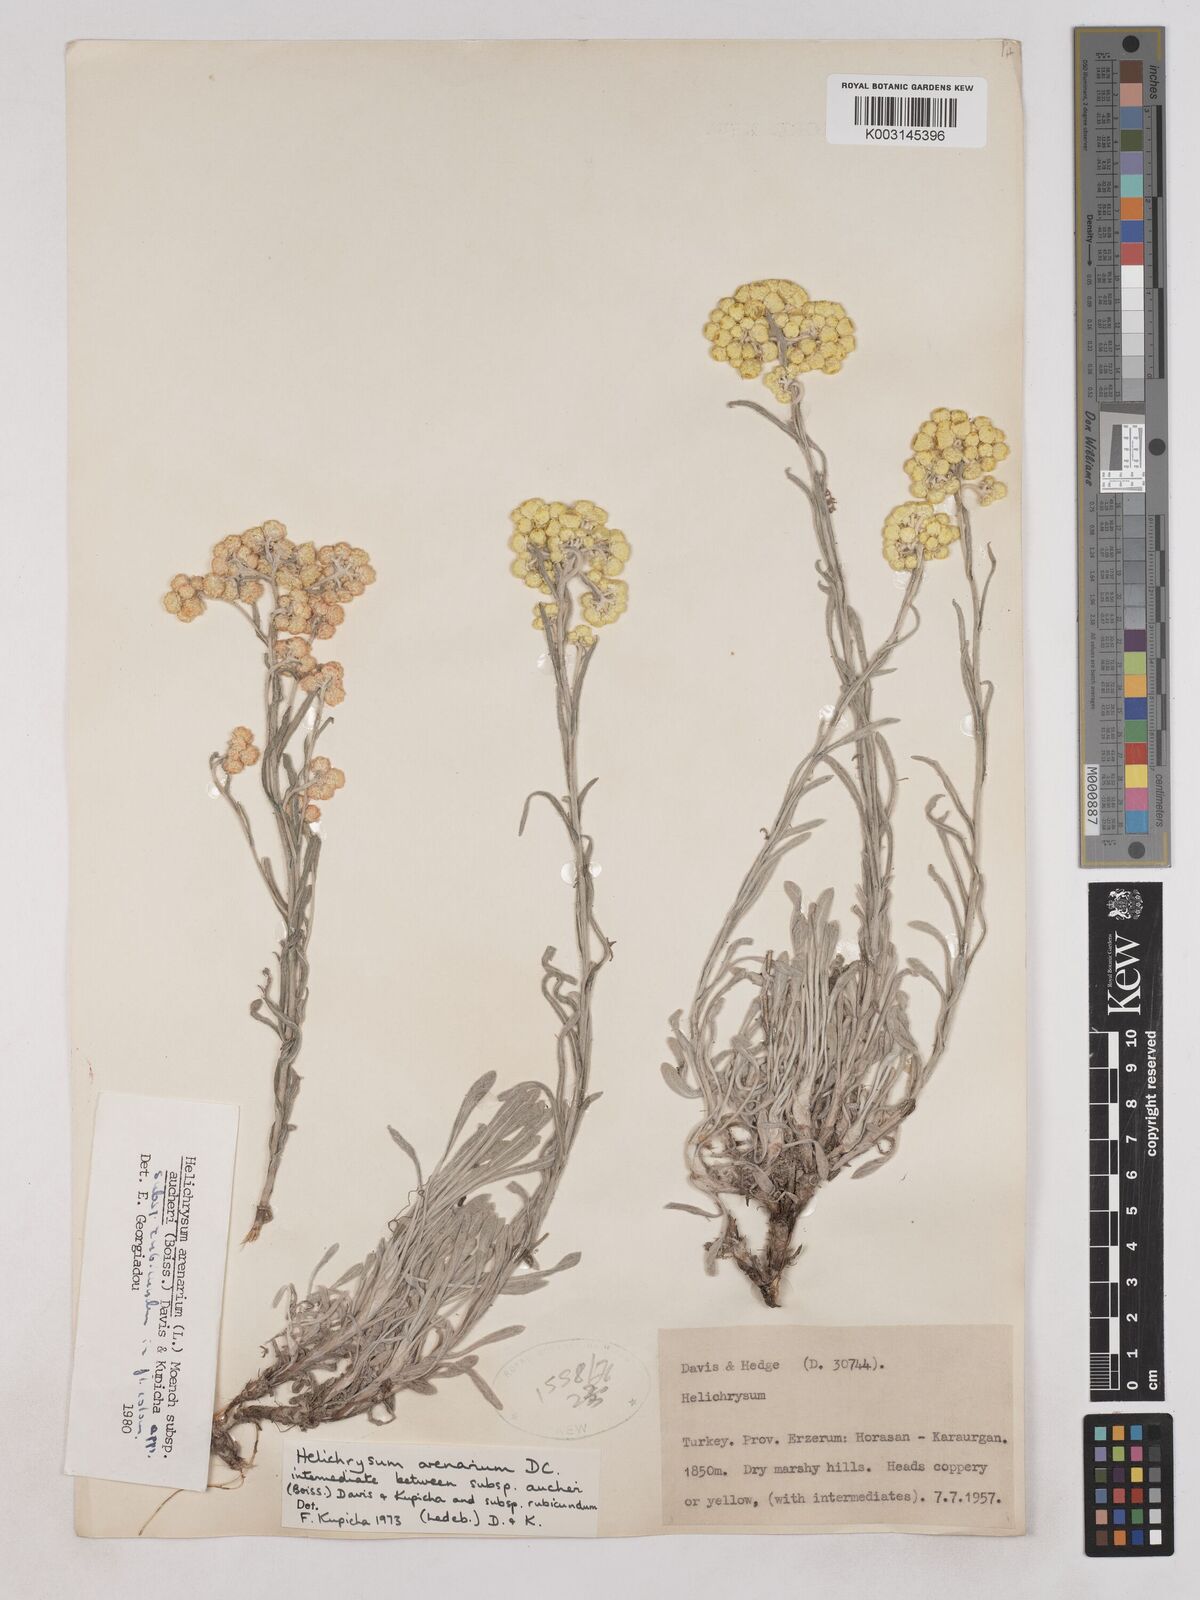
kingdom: Plantae
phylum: Tracheophyta
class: Magnoliopsida
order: Asterales
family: Asteraceae
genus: Helichrysum
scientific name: Helichrysum arenarium
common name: Strawflower
